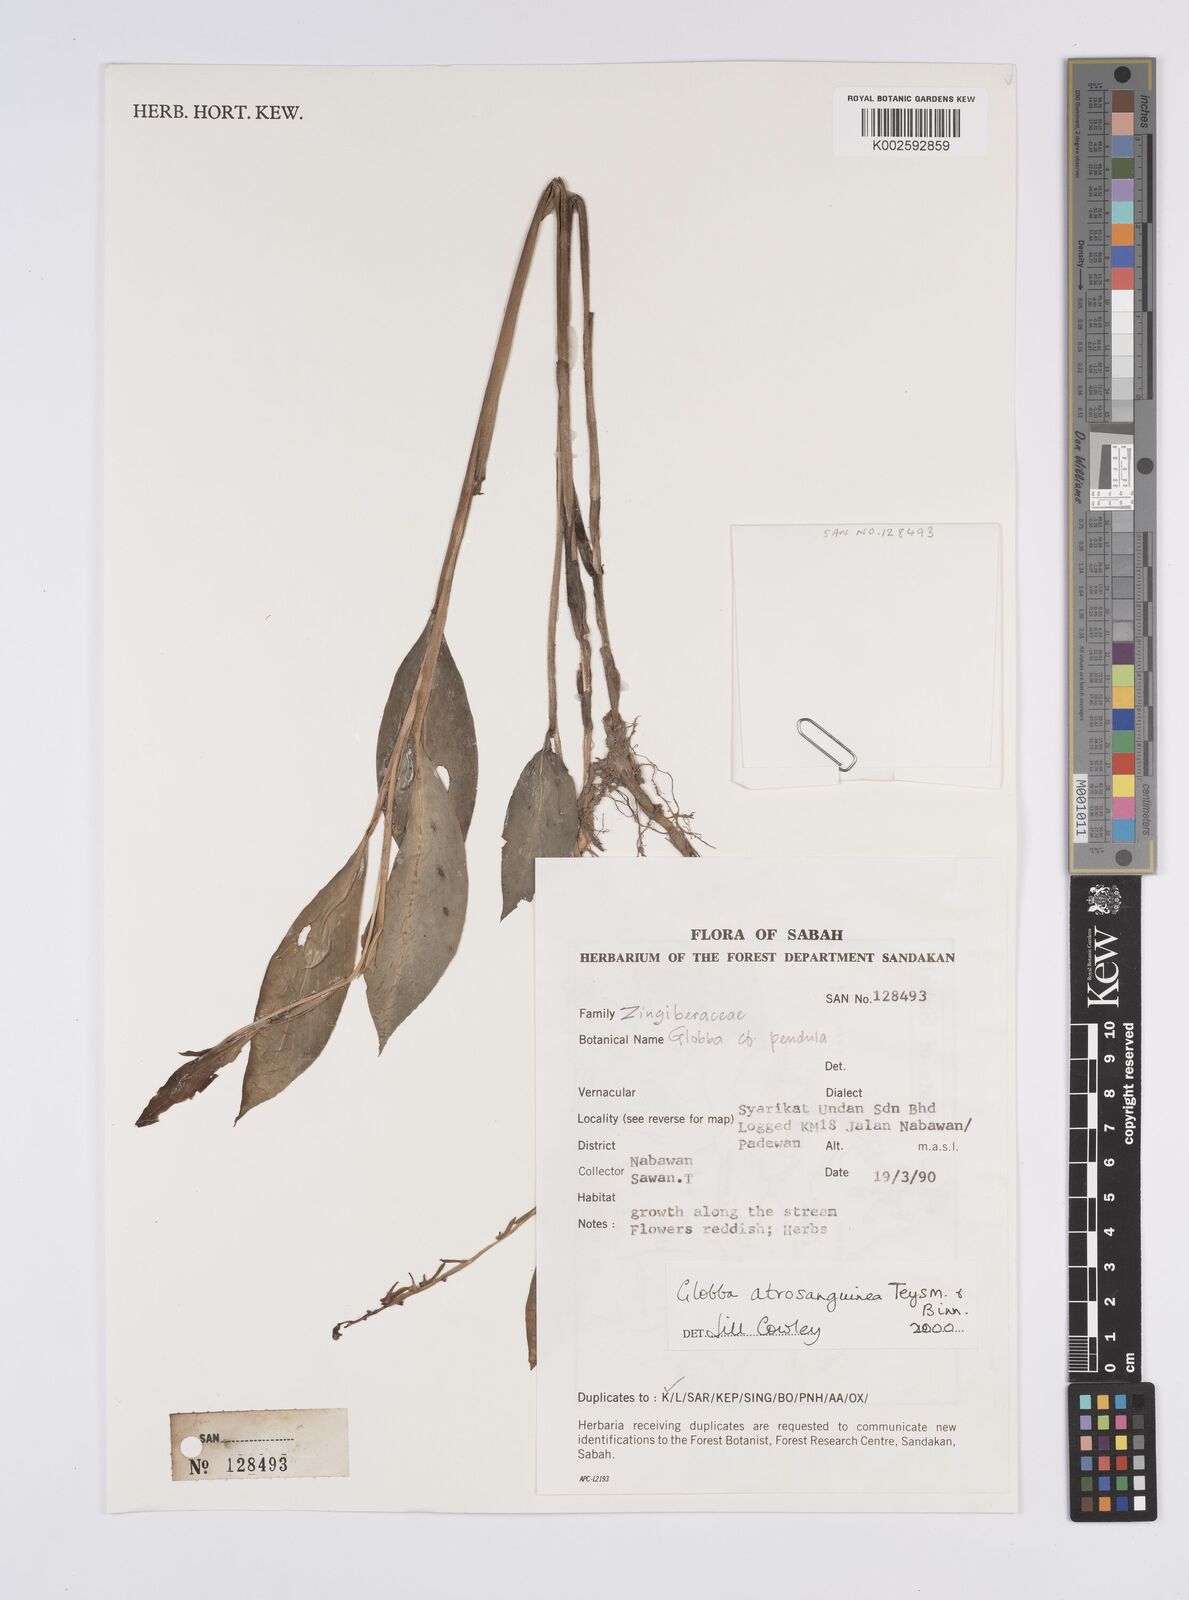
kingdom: Plantae
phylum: Tracheophyta
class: Liliopsida
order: Zingiberales
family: Zingiberaceae
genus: Globba
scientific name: Globba atrosanguinea
